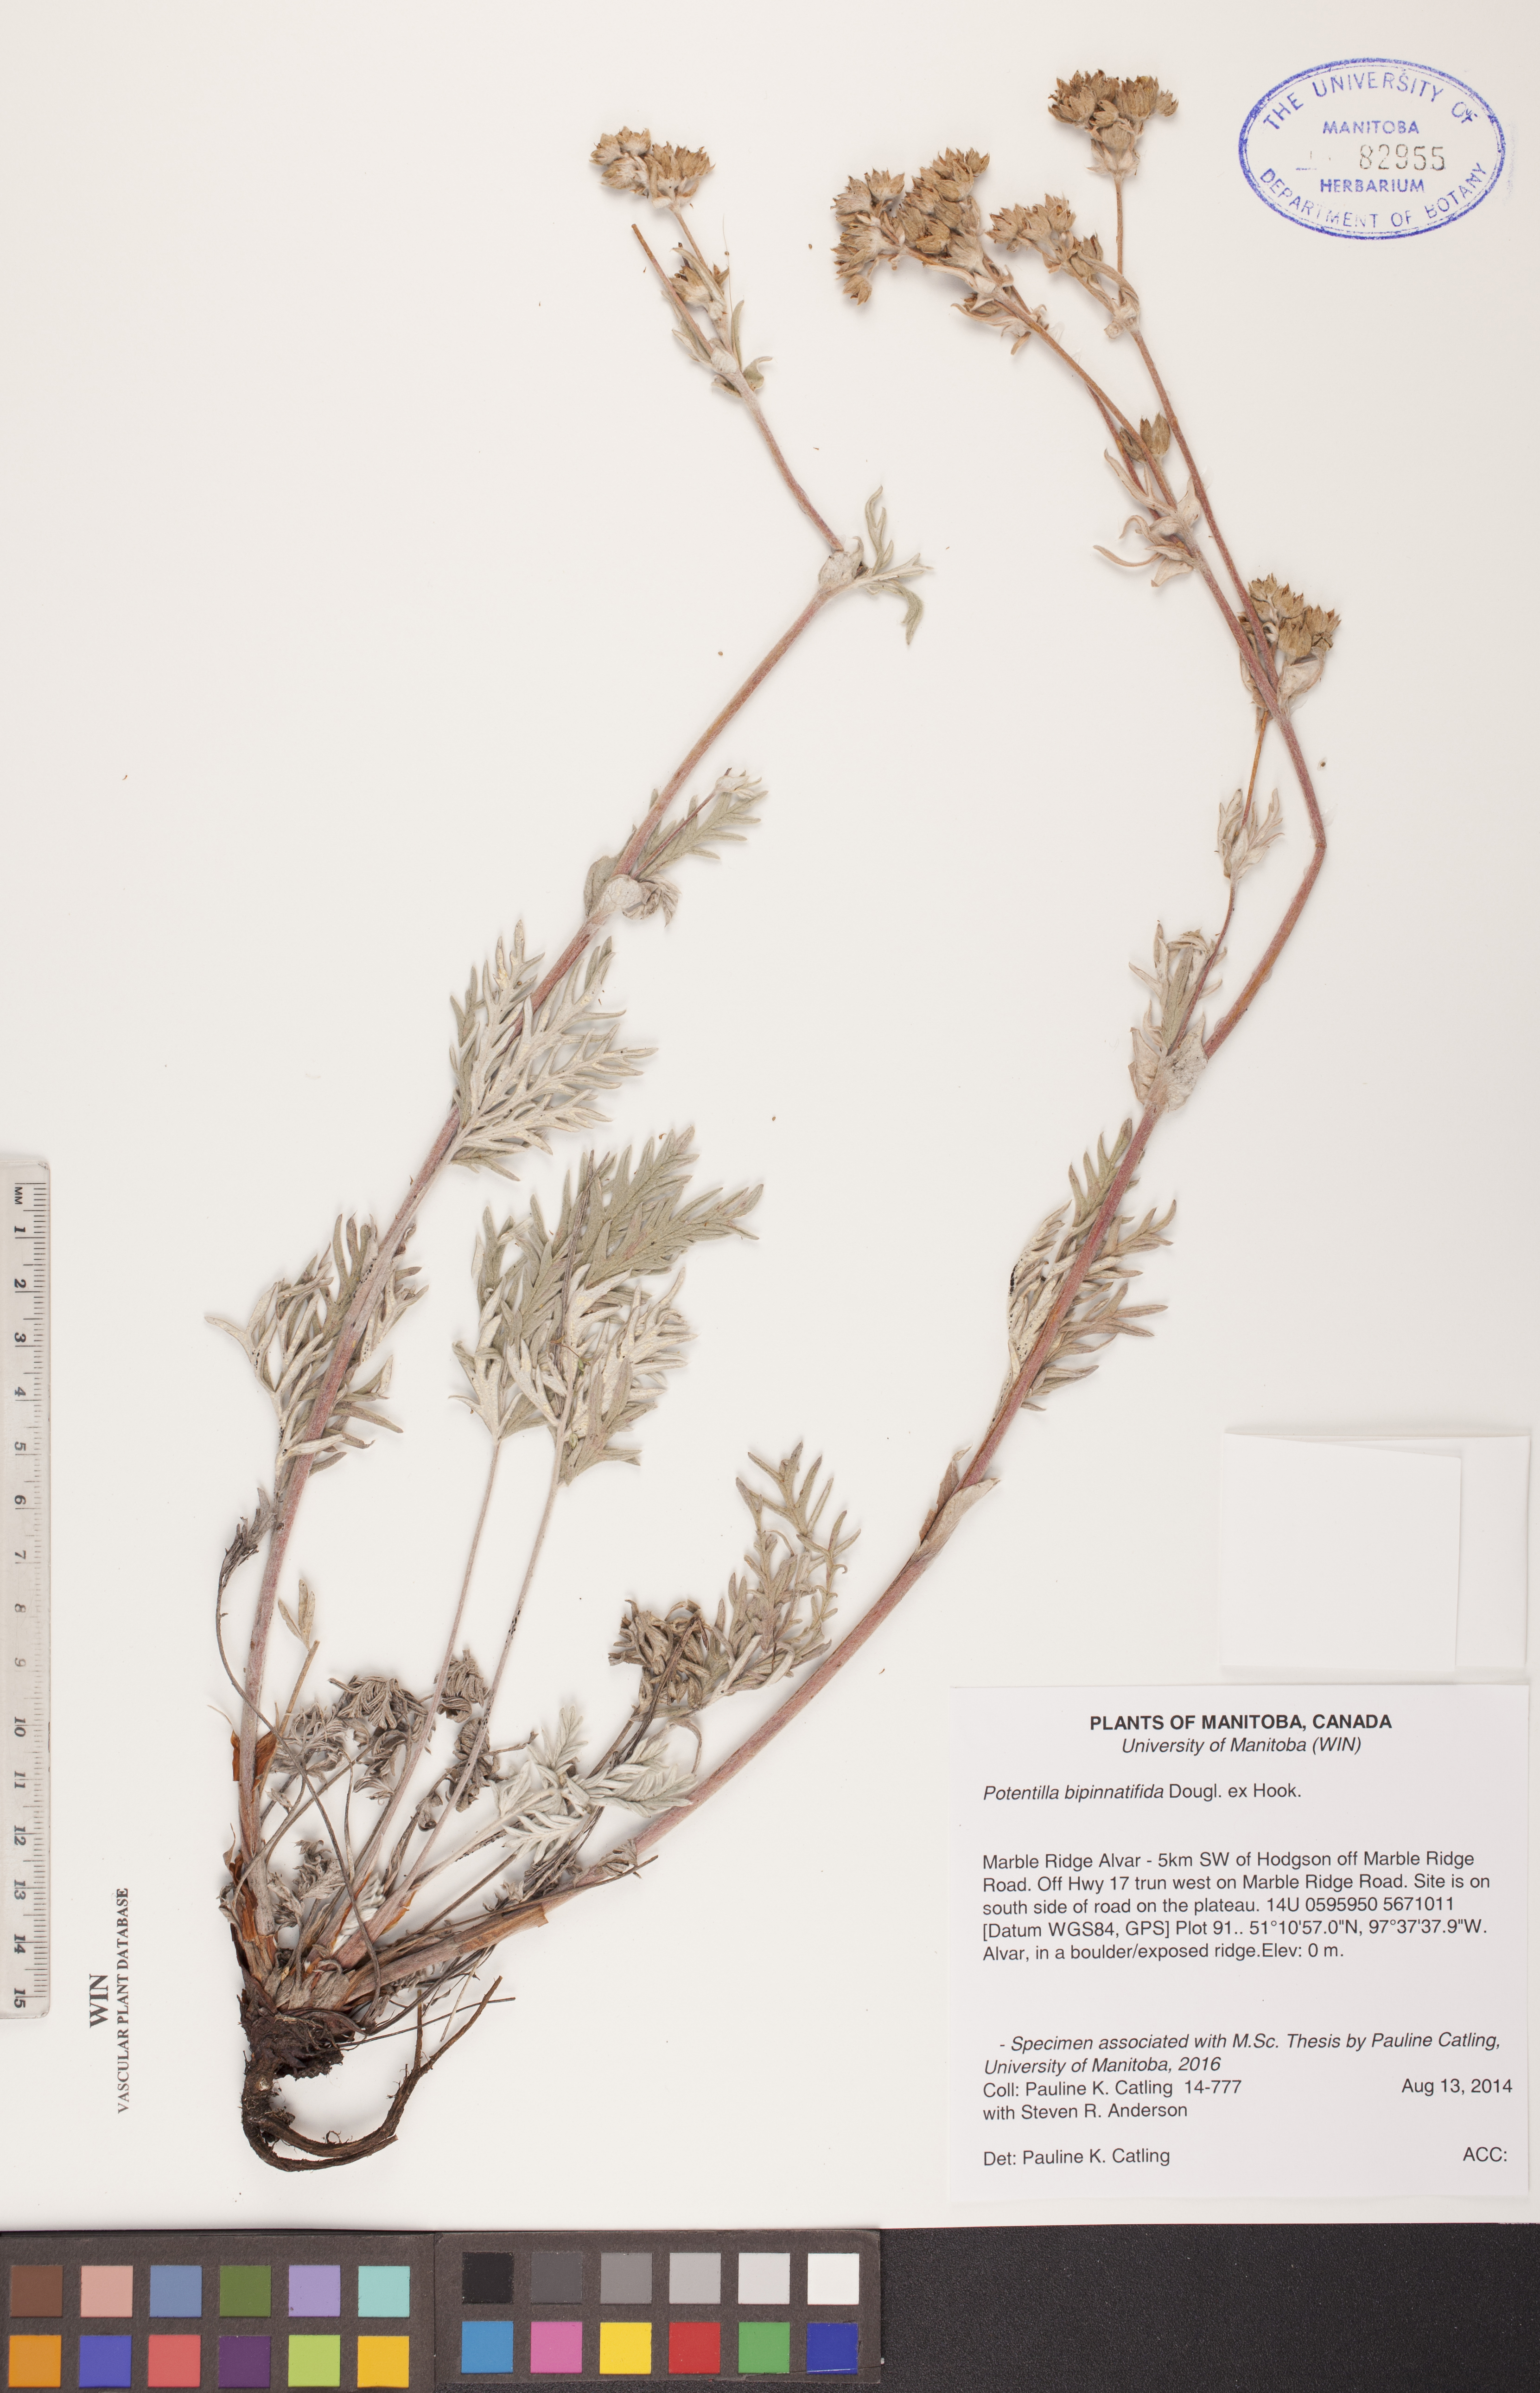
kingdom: Plantae
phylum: Tracheophyta
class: Magnoliopsida
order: Rosales
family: Rosaceae
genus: Potentilla
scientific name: Potentilla bipinnatifida
